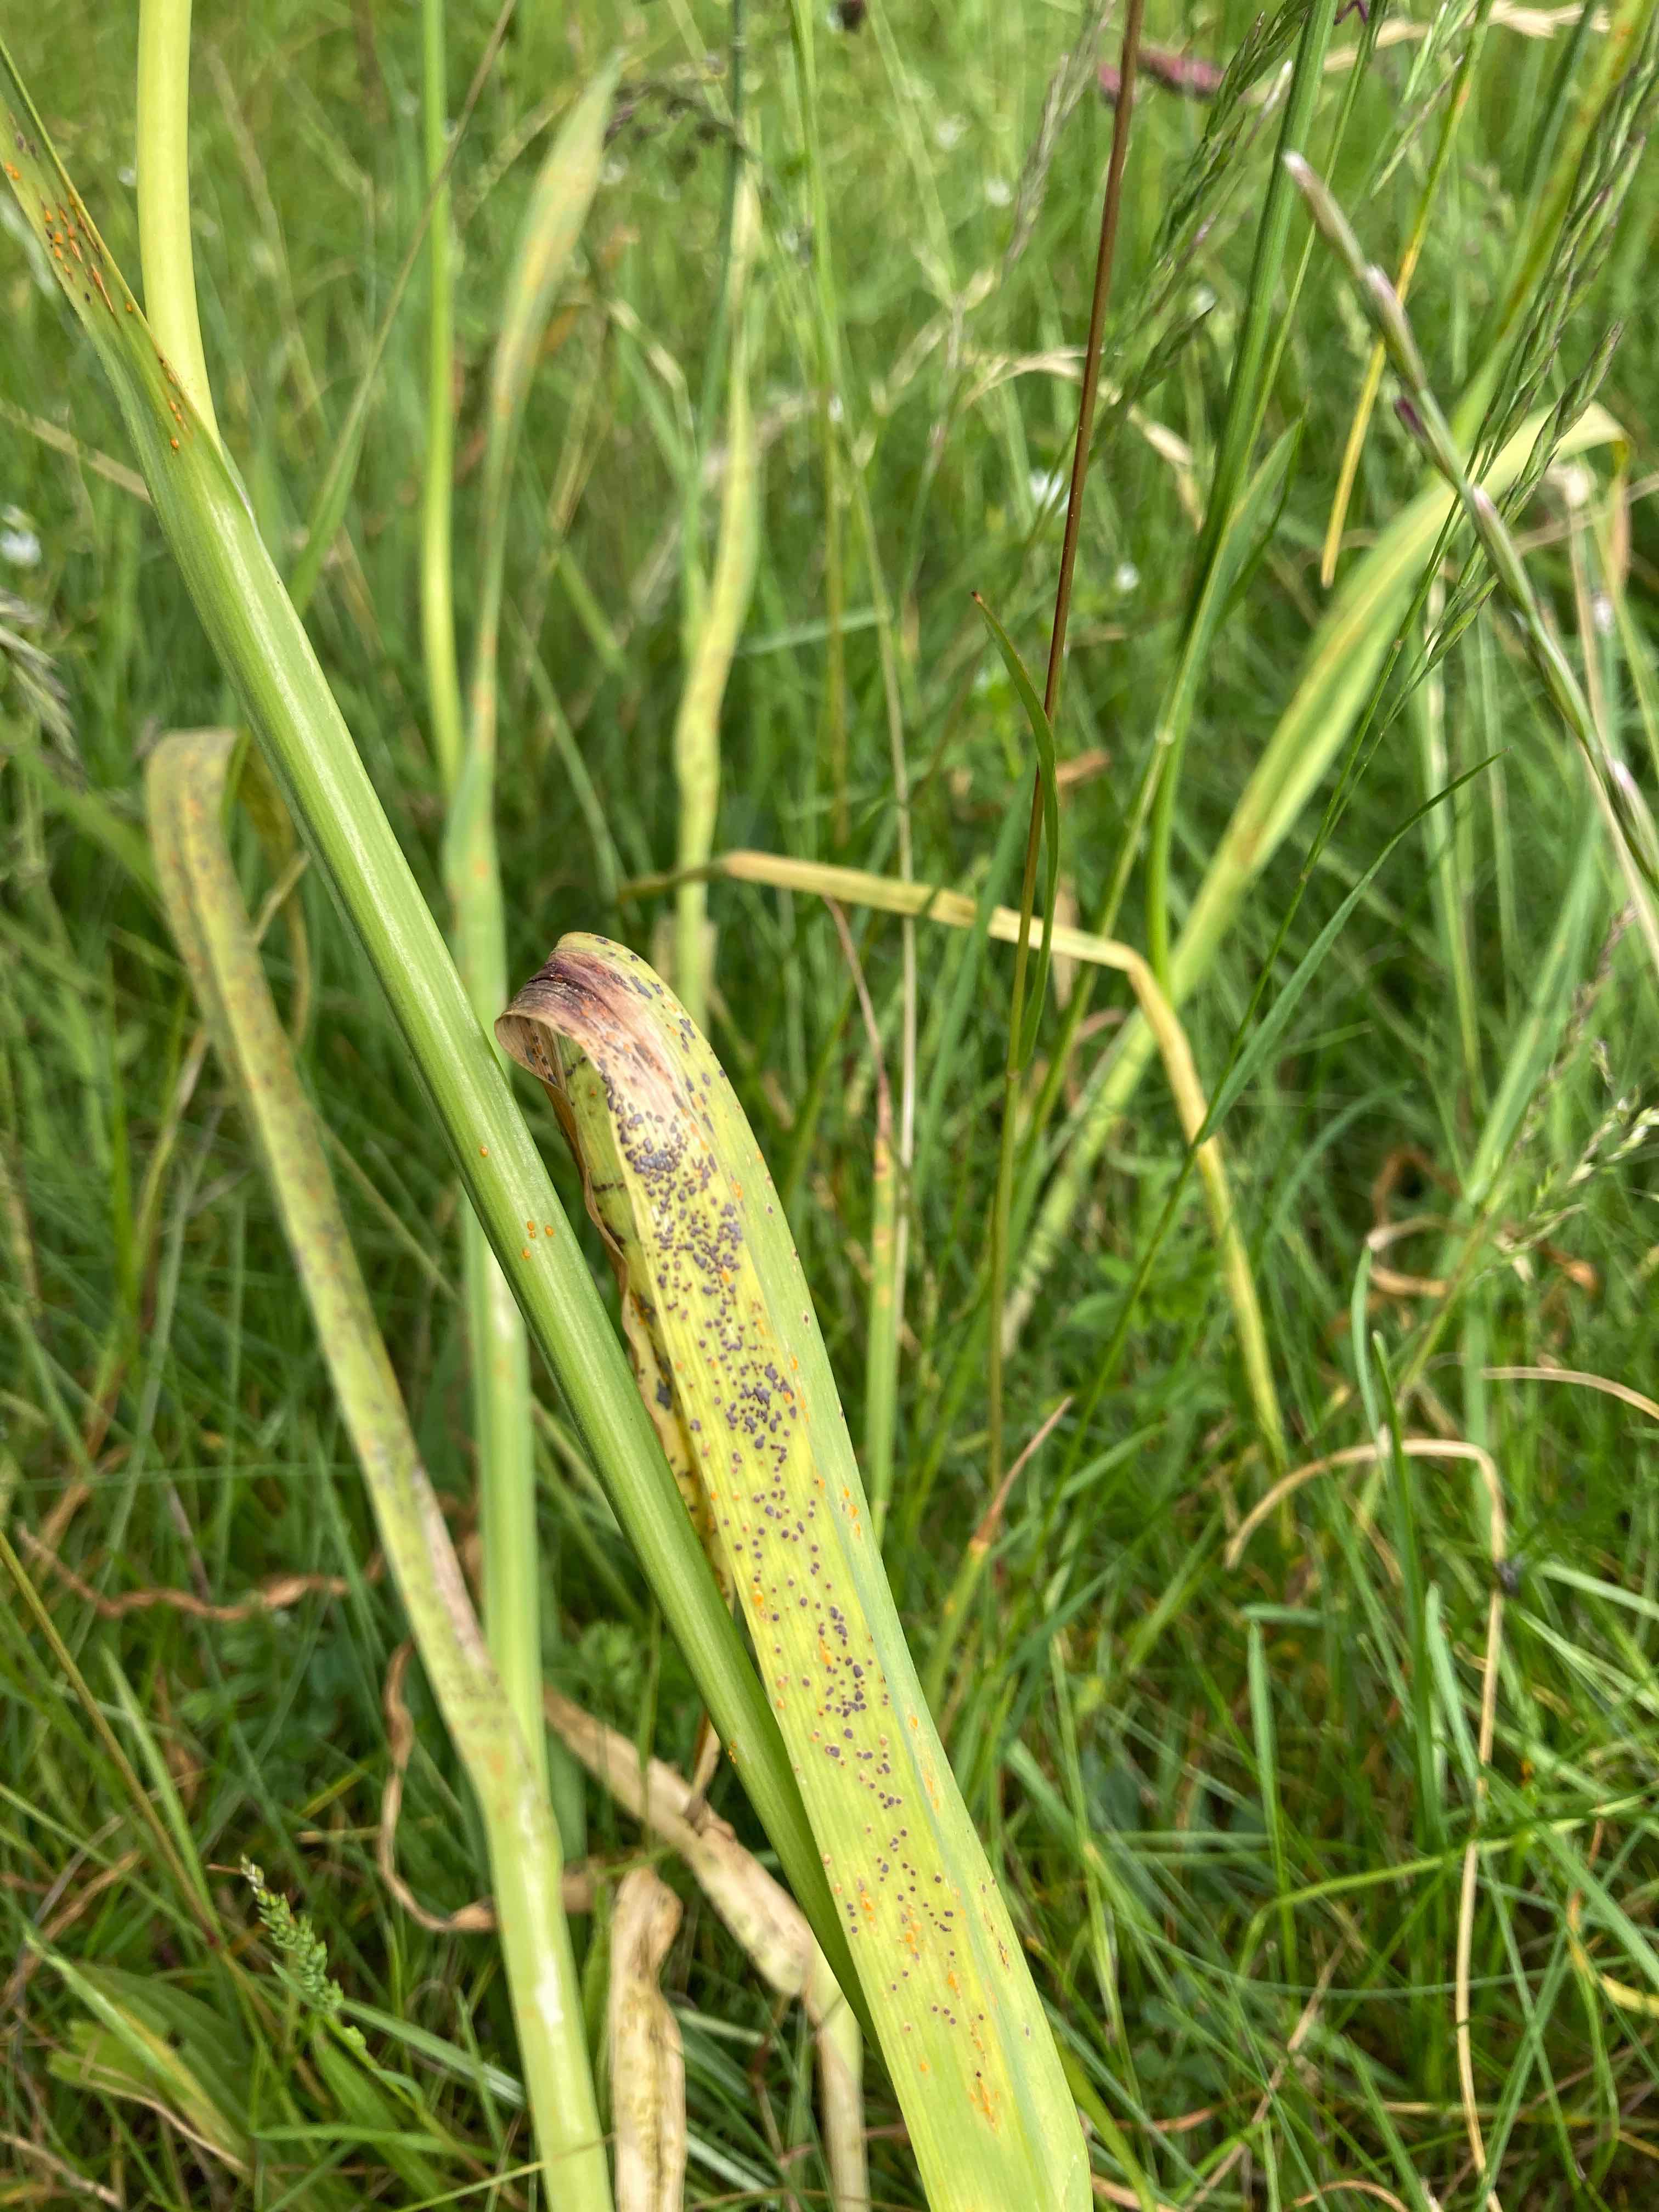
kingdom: Fungi
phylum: Basidiomycota
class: Pucciniomycetes
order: Pucciniales
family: Pucciniaceae
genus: Puccinia
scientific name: Puccinia porri
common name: Allium rust
